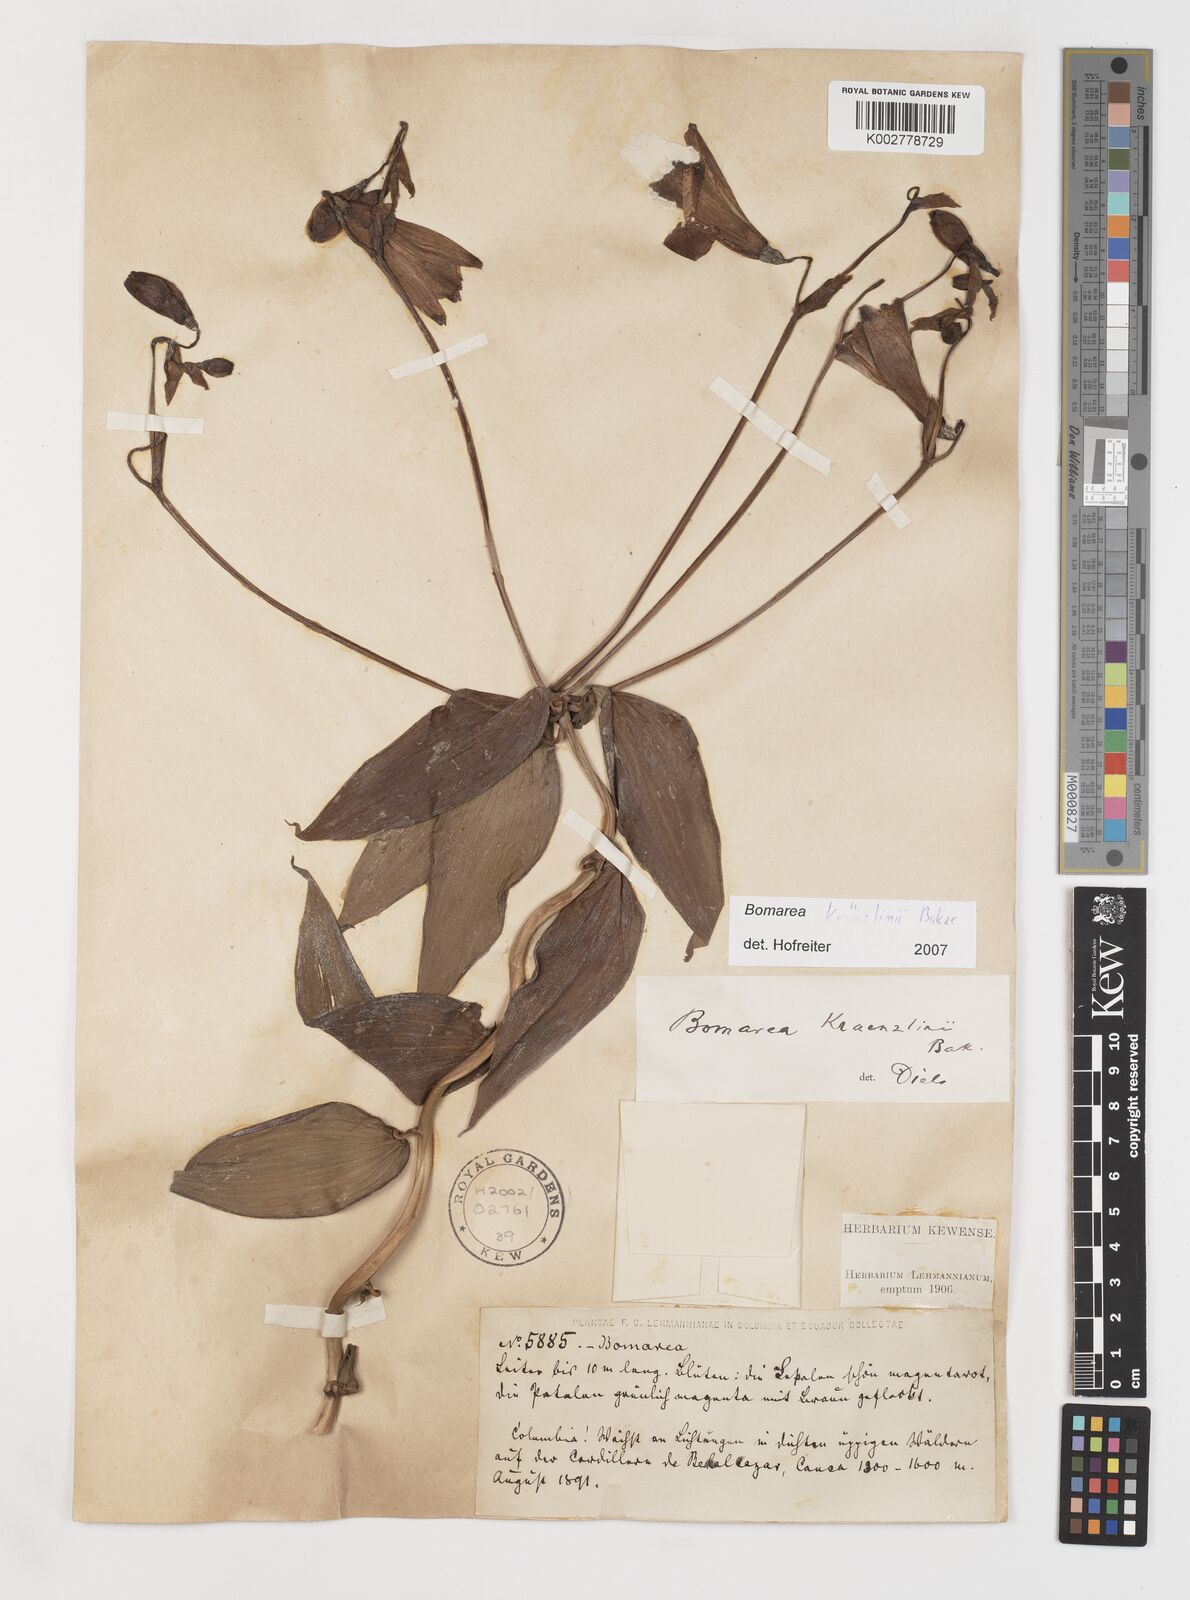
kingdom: Plantae
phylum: Tracheophyta
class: Liliopsida
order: Liliales
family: Alstroemeriaceae
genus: Bomarea
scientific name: Bomarea kraenzlinii
